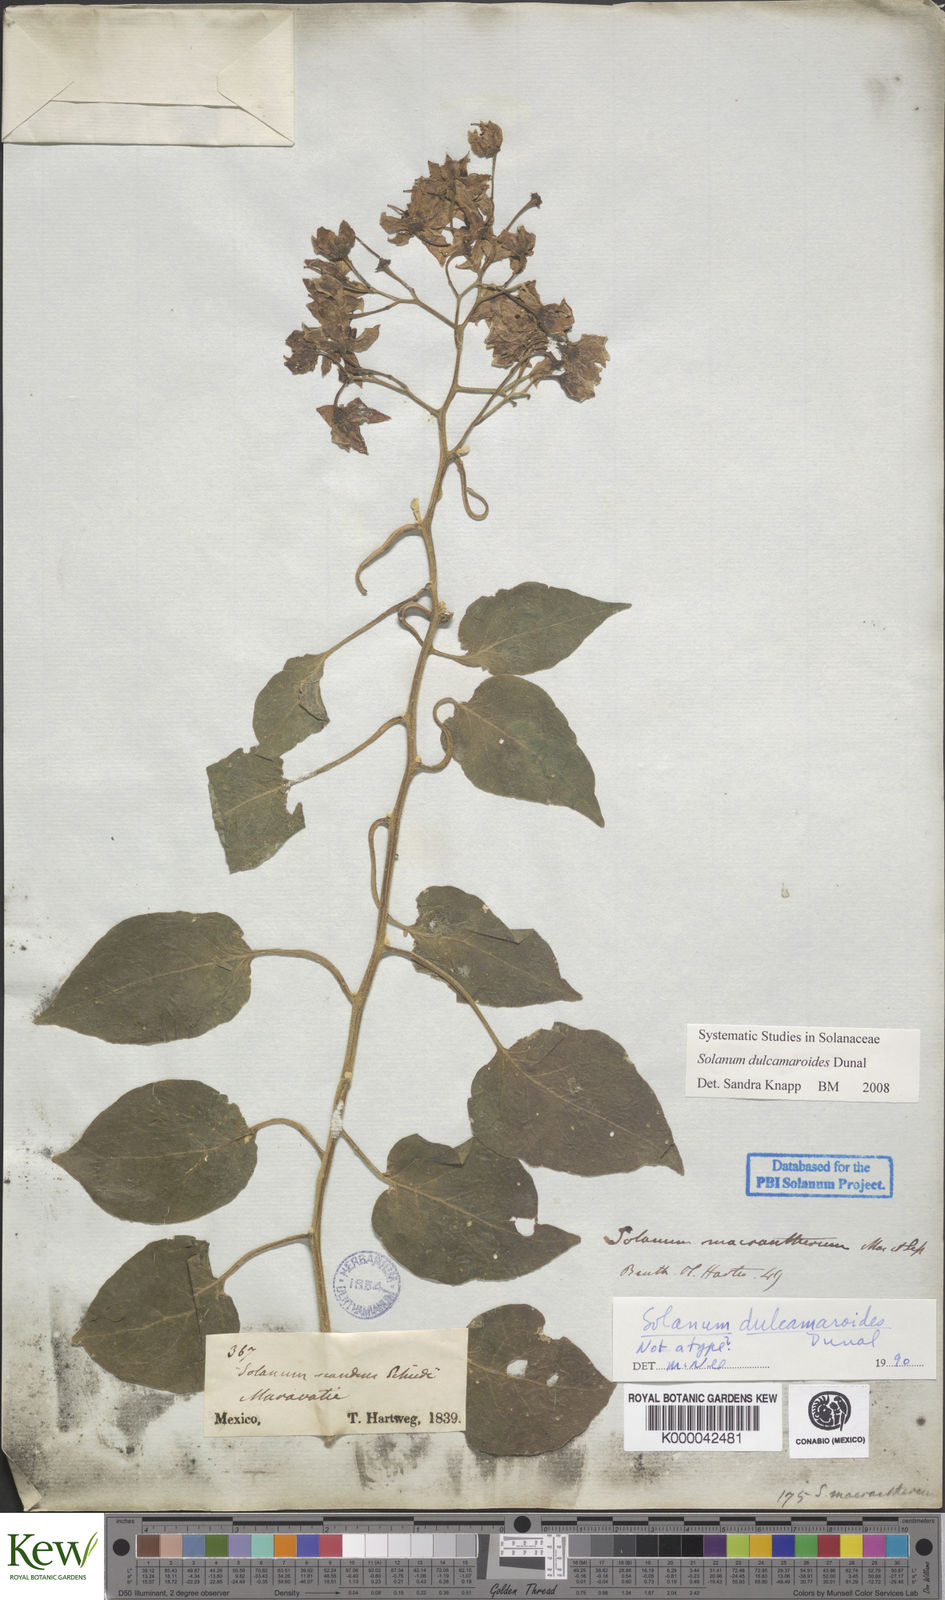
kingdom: Plantae
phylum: Tracheophyta
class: Magnoliopsida
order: Solanales
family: Solanaceae
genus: Solanum
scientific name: Solanum dulcamaroides
